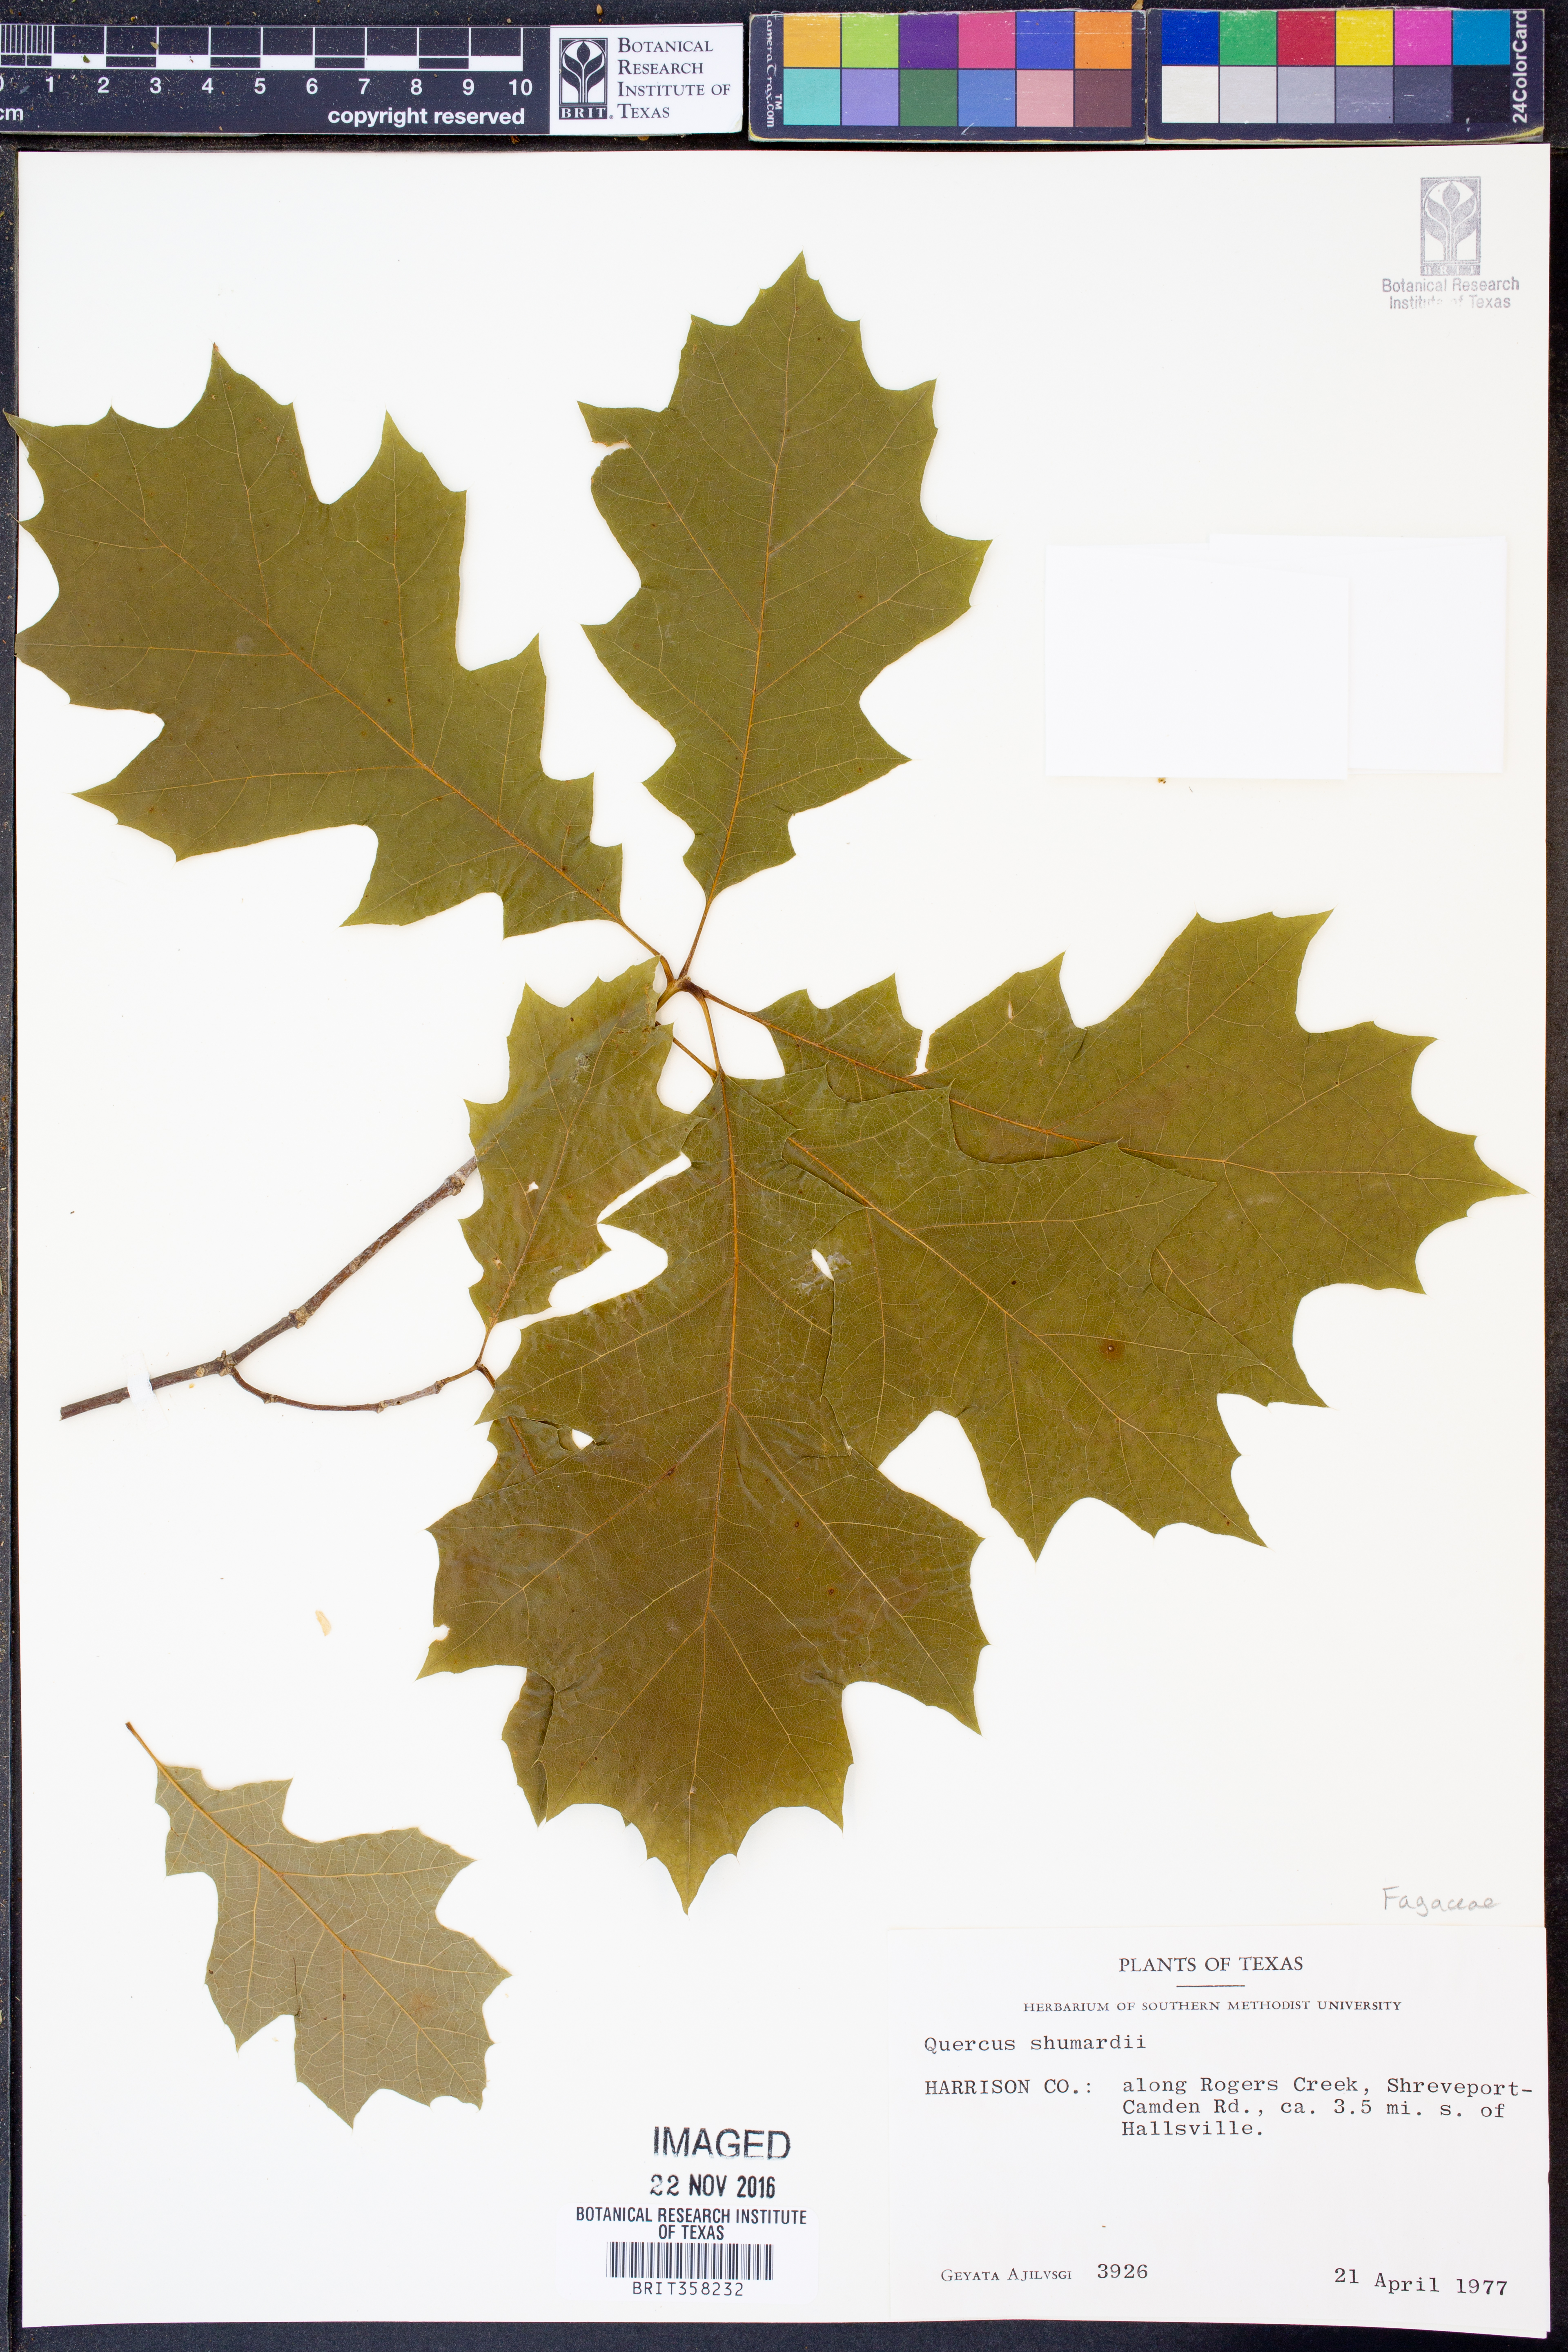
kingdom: Plantae
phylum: Tracheophyta
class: Magnoliopsida
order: Fagales
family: Fagaceae
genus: Quercus
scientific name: Quercus shumardii
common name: Shumard oak
